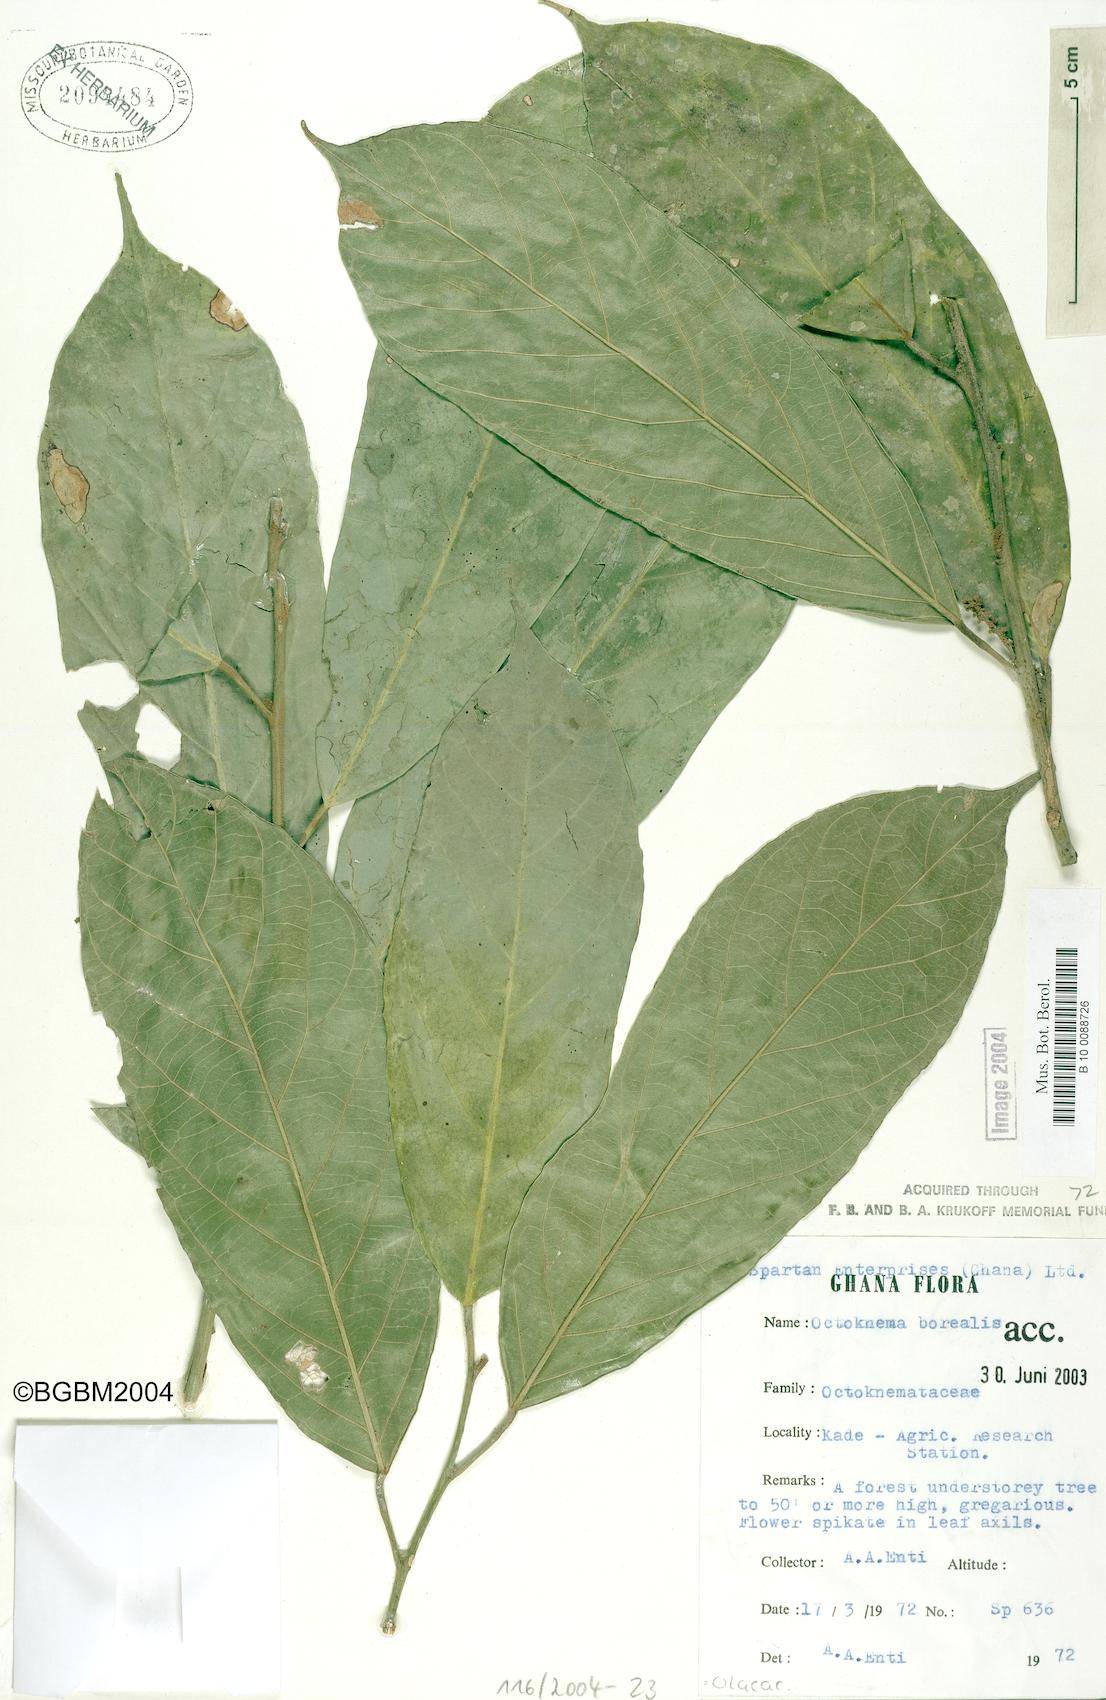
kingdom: Plantae
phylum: Tracheophyta
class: Magnoliopsida
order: Santalales
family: Octoknemaceae
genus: Octoknema
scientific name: Octoknema borealis
